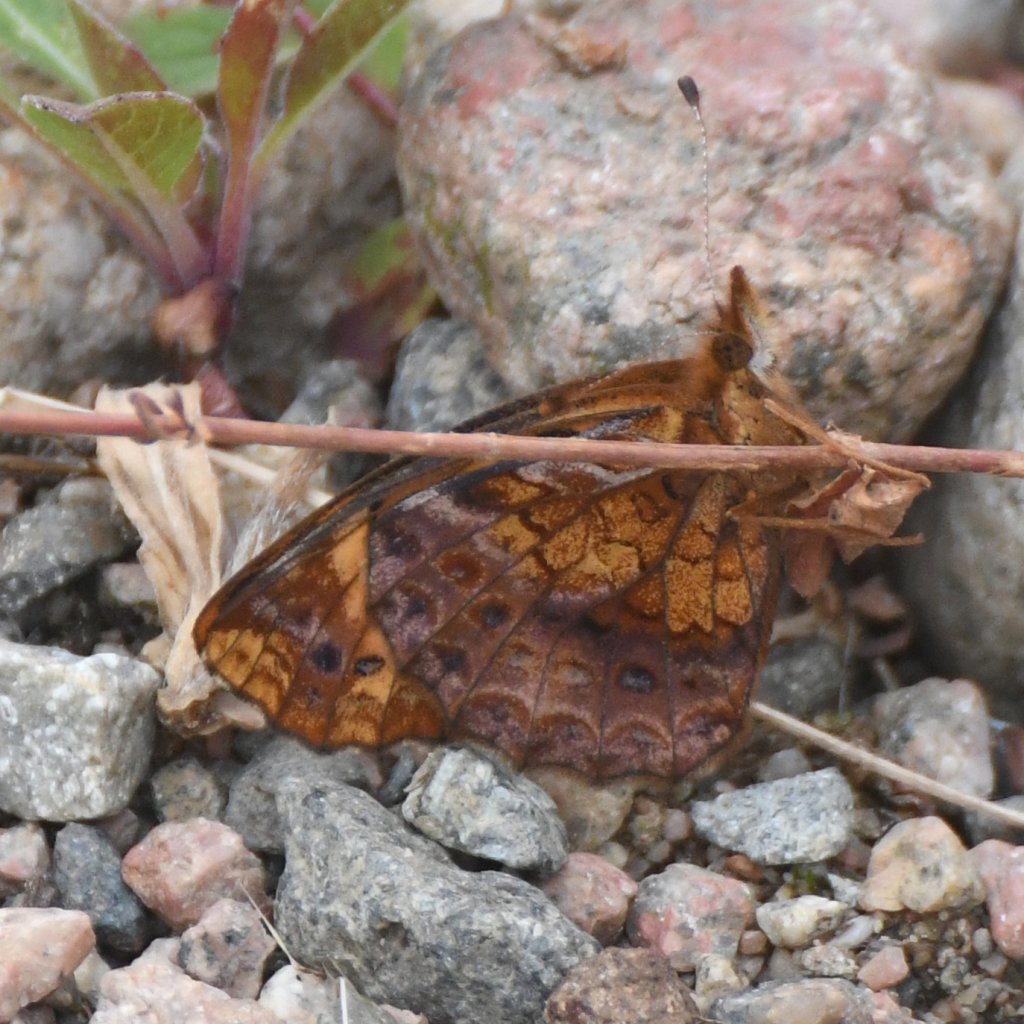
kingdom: Animalia
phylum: Arthropoda
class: Insecta
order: Lepidoptera
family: Nymphalidae
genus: Clossiana
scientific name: Clossiana toddi
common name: Meadow Fritillary
